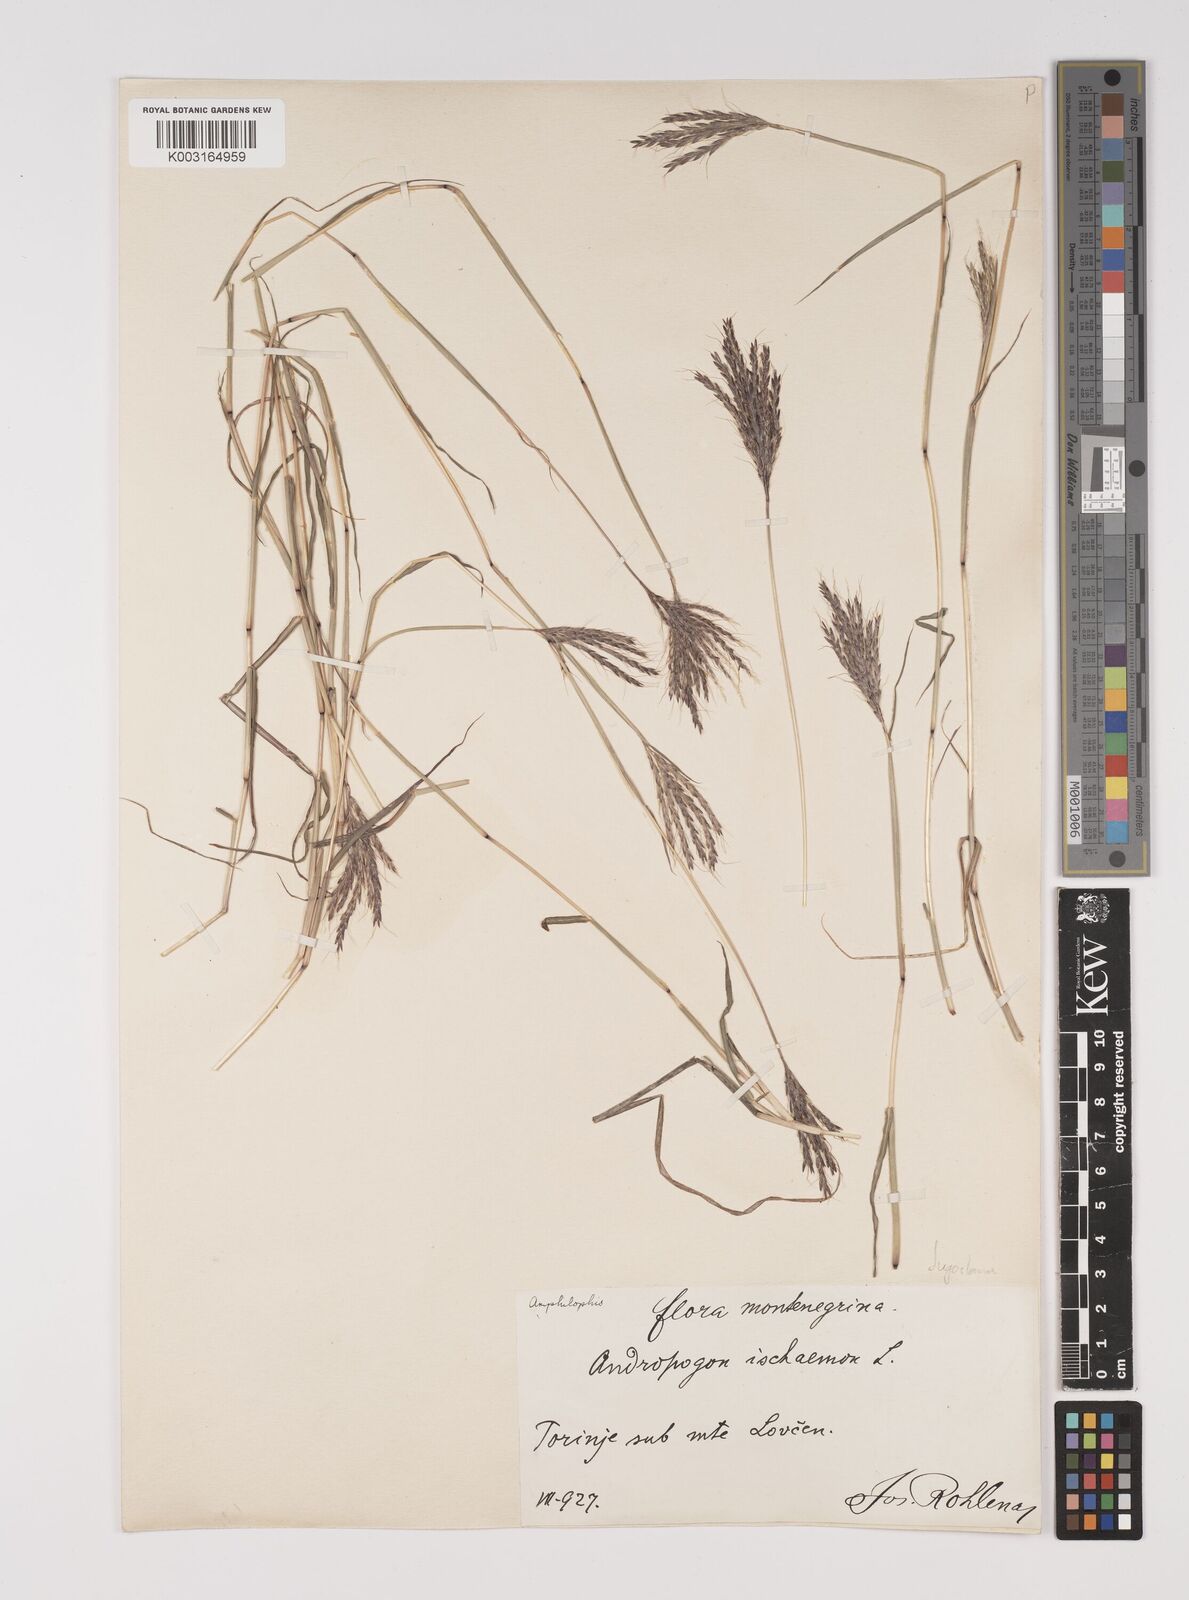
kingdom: Plantae
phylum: Tracheophyta
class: Liliopsida
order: Poales
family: Poaceae
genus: Bothriochloa
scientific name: Bothriochloa ischaemum
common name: Yellow bluestem
